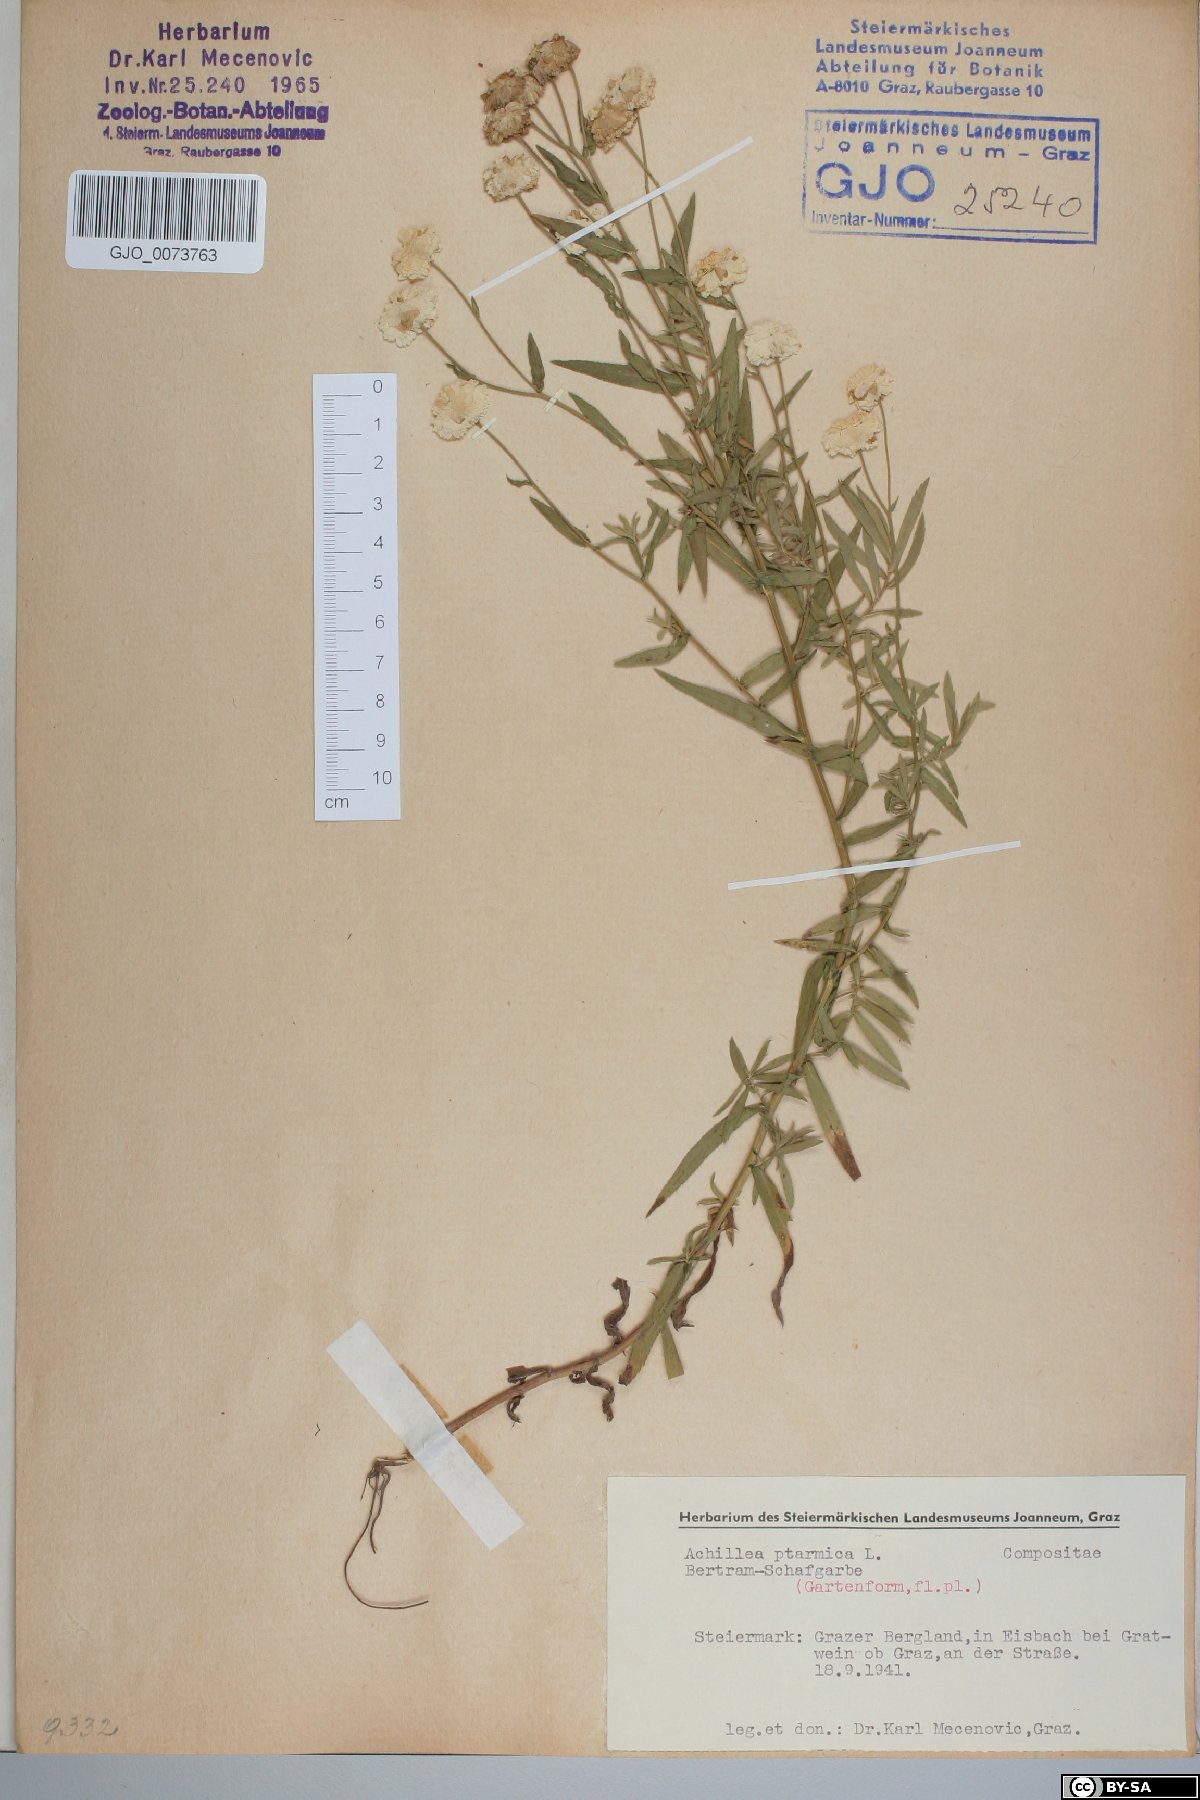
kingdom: Plantae
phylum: Tracheophyta
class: Magnoliopsida
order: Asterales
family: Asteraceae
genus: Achillea
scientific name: Achillea ptarmica
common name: Sneezeweed
